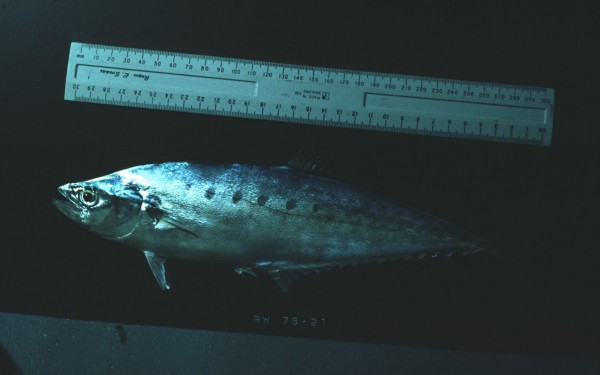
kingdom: Animalia
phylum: Chordata
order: Perciformes
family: Carangidae
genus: Scomberoides
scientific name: Scomberoides tol
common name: Needlescaled queenfish
